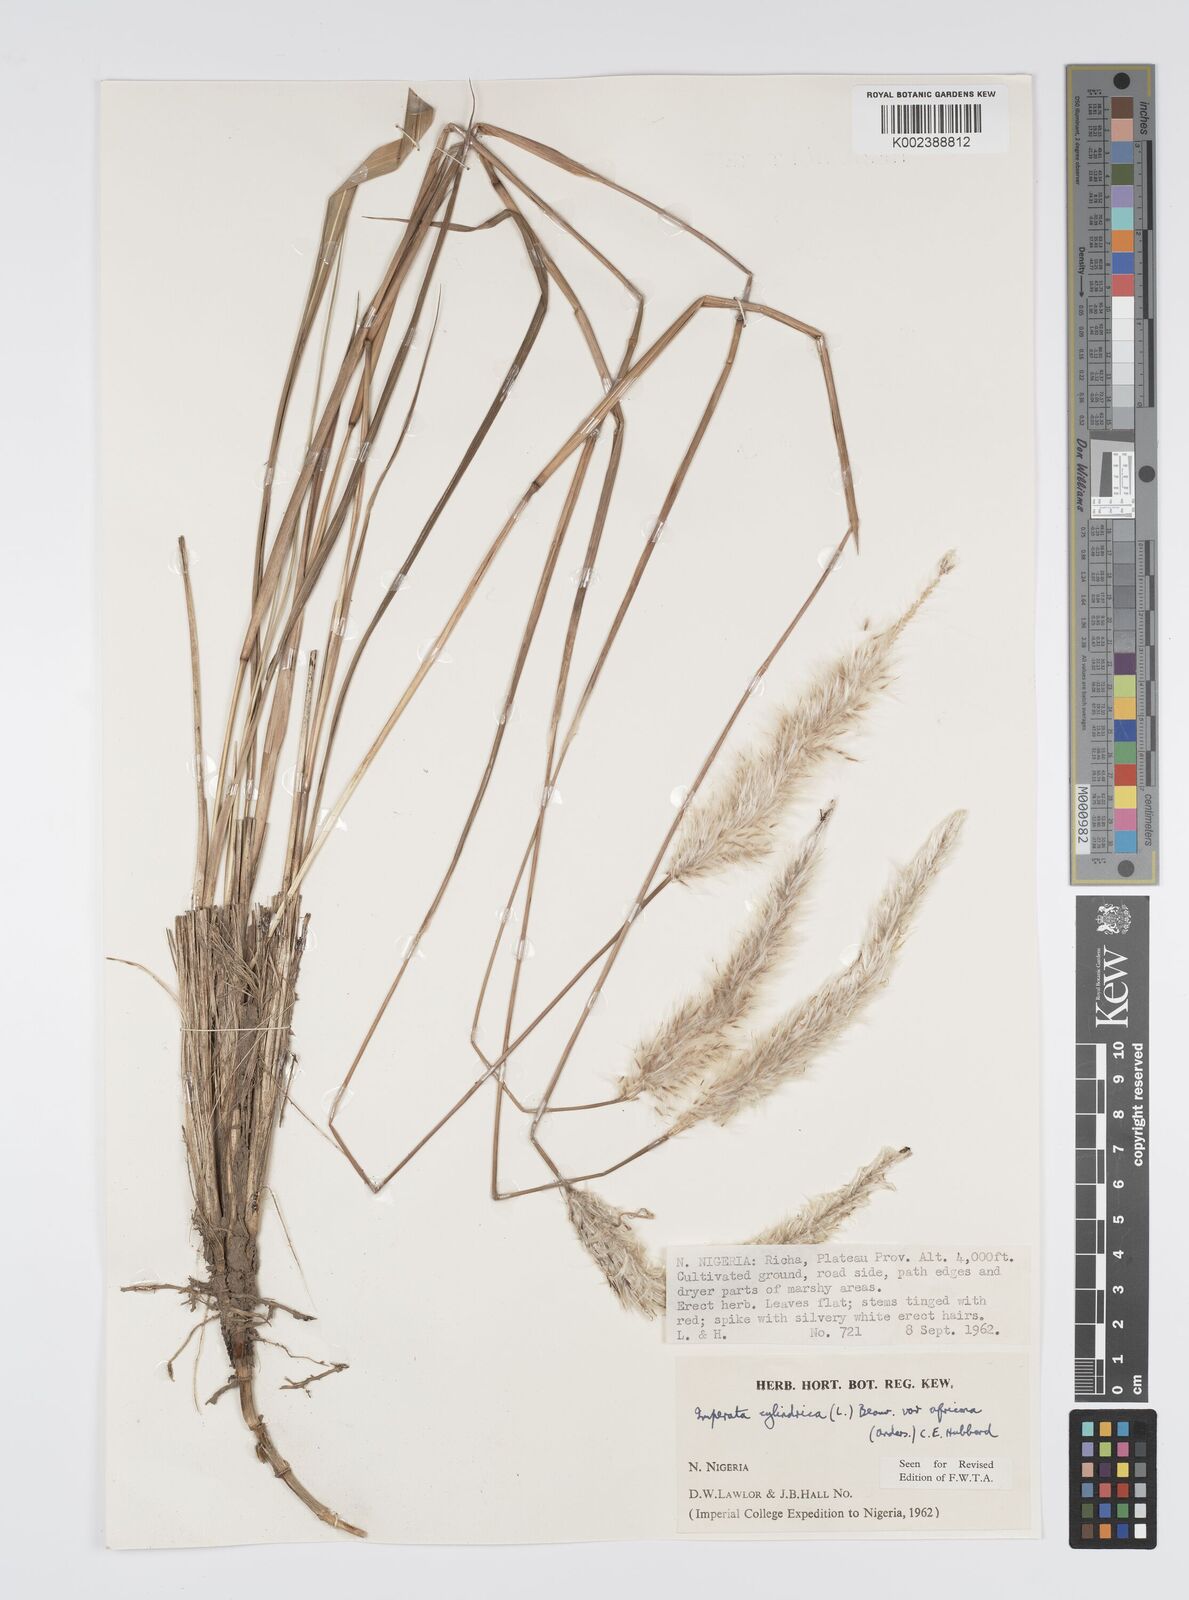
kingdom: Plantae
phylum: Tracheophyta
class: Liliopsida
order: Poales
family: Poaceae
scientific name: Poaceae
